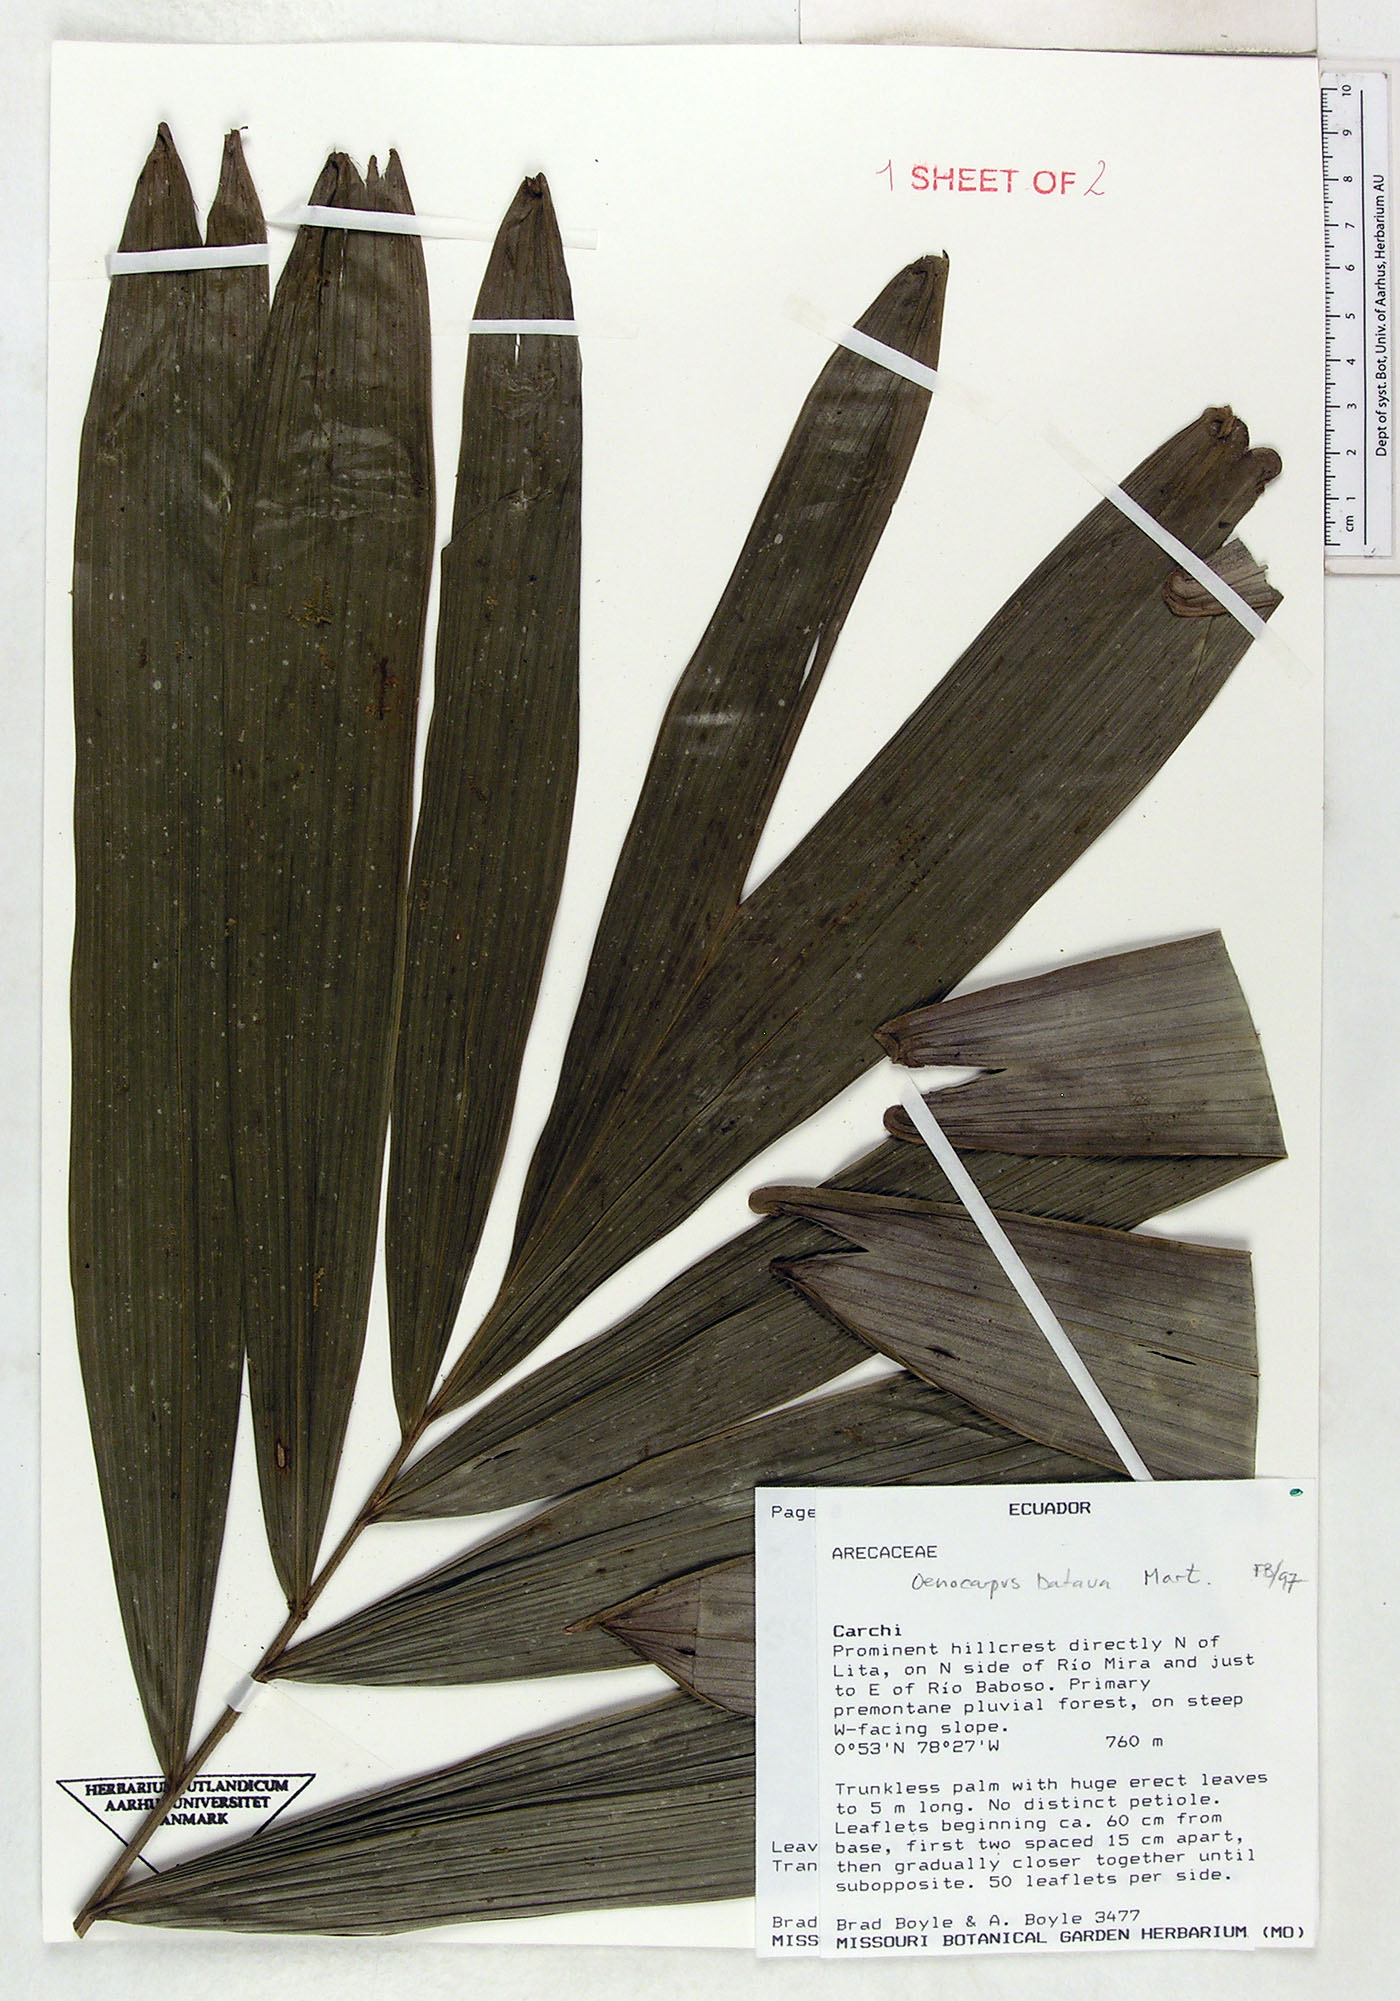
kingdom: Plantae
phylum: Tracheophyta
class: Liliopsida
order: Arecales
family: Arecaceae
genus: Oenocarpus
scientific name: Oenocarpus bataua
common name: Bataua palm
